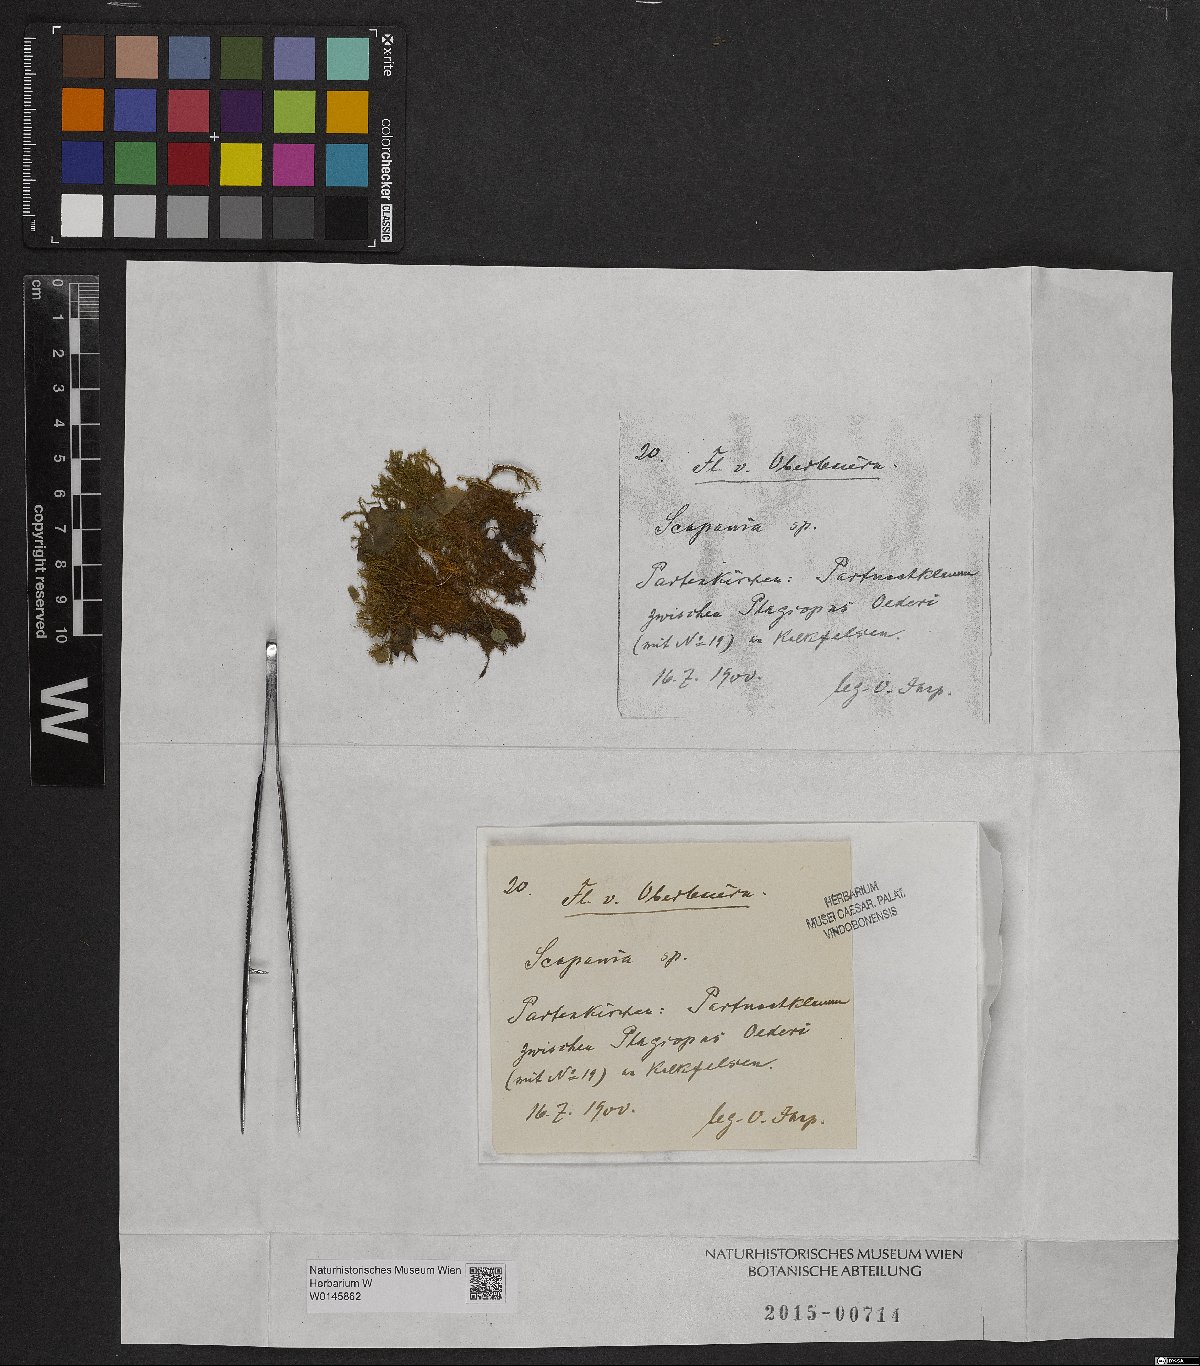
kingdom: Plantae
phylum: Marchantiophyta
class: Jungermanniopsida
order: Jungermanniales
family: Scapaniaceae
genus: Scapania
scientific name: Scapania
